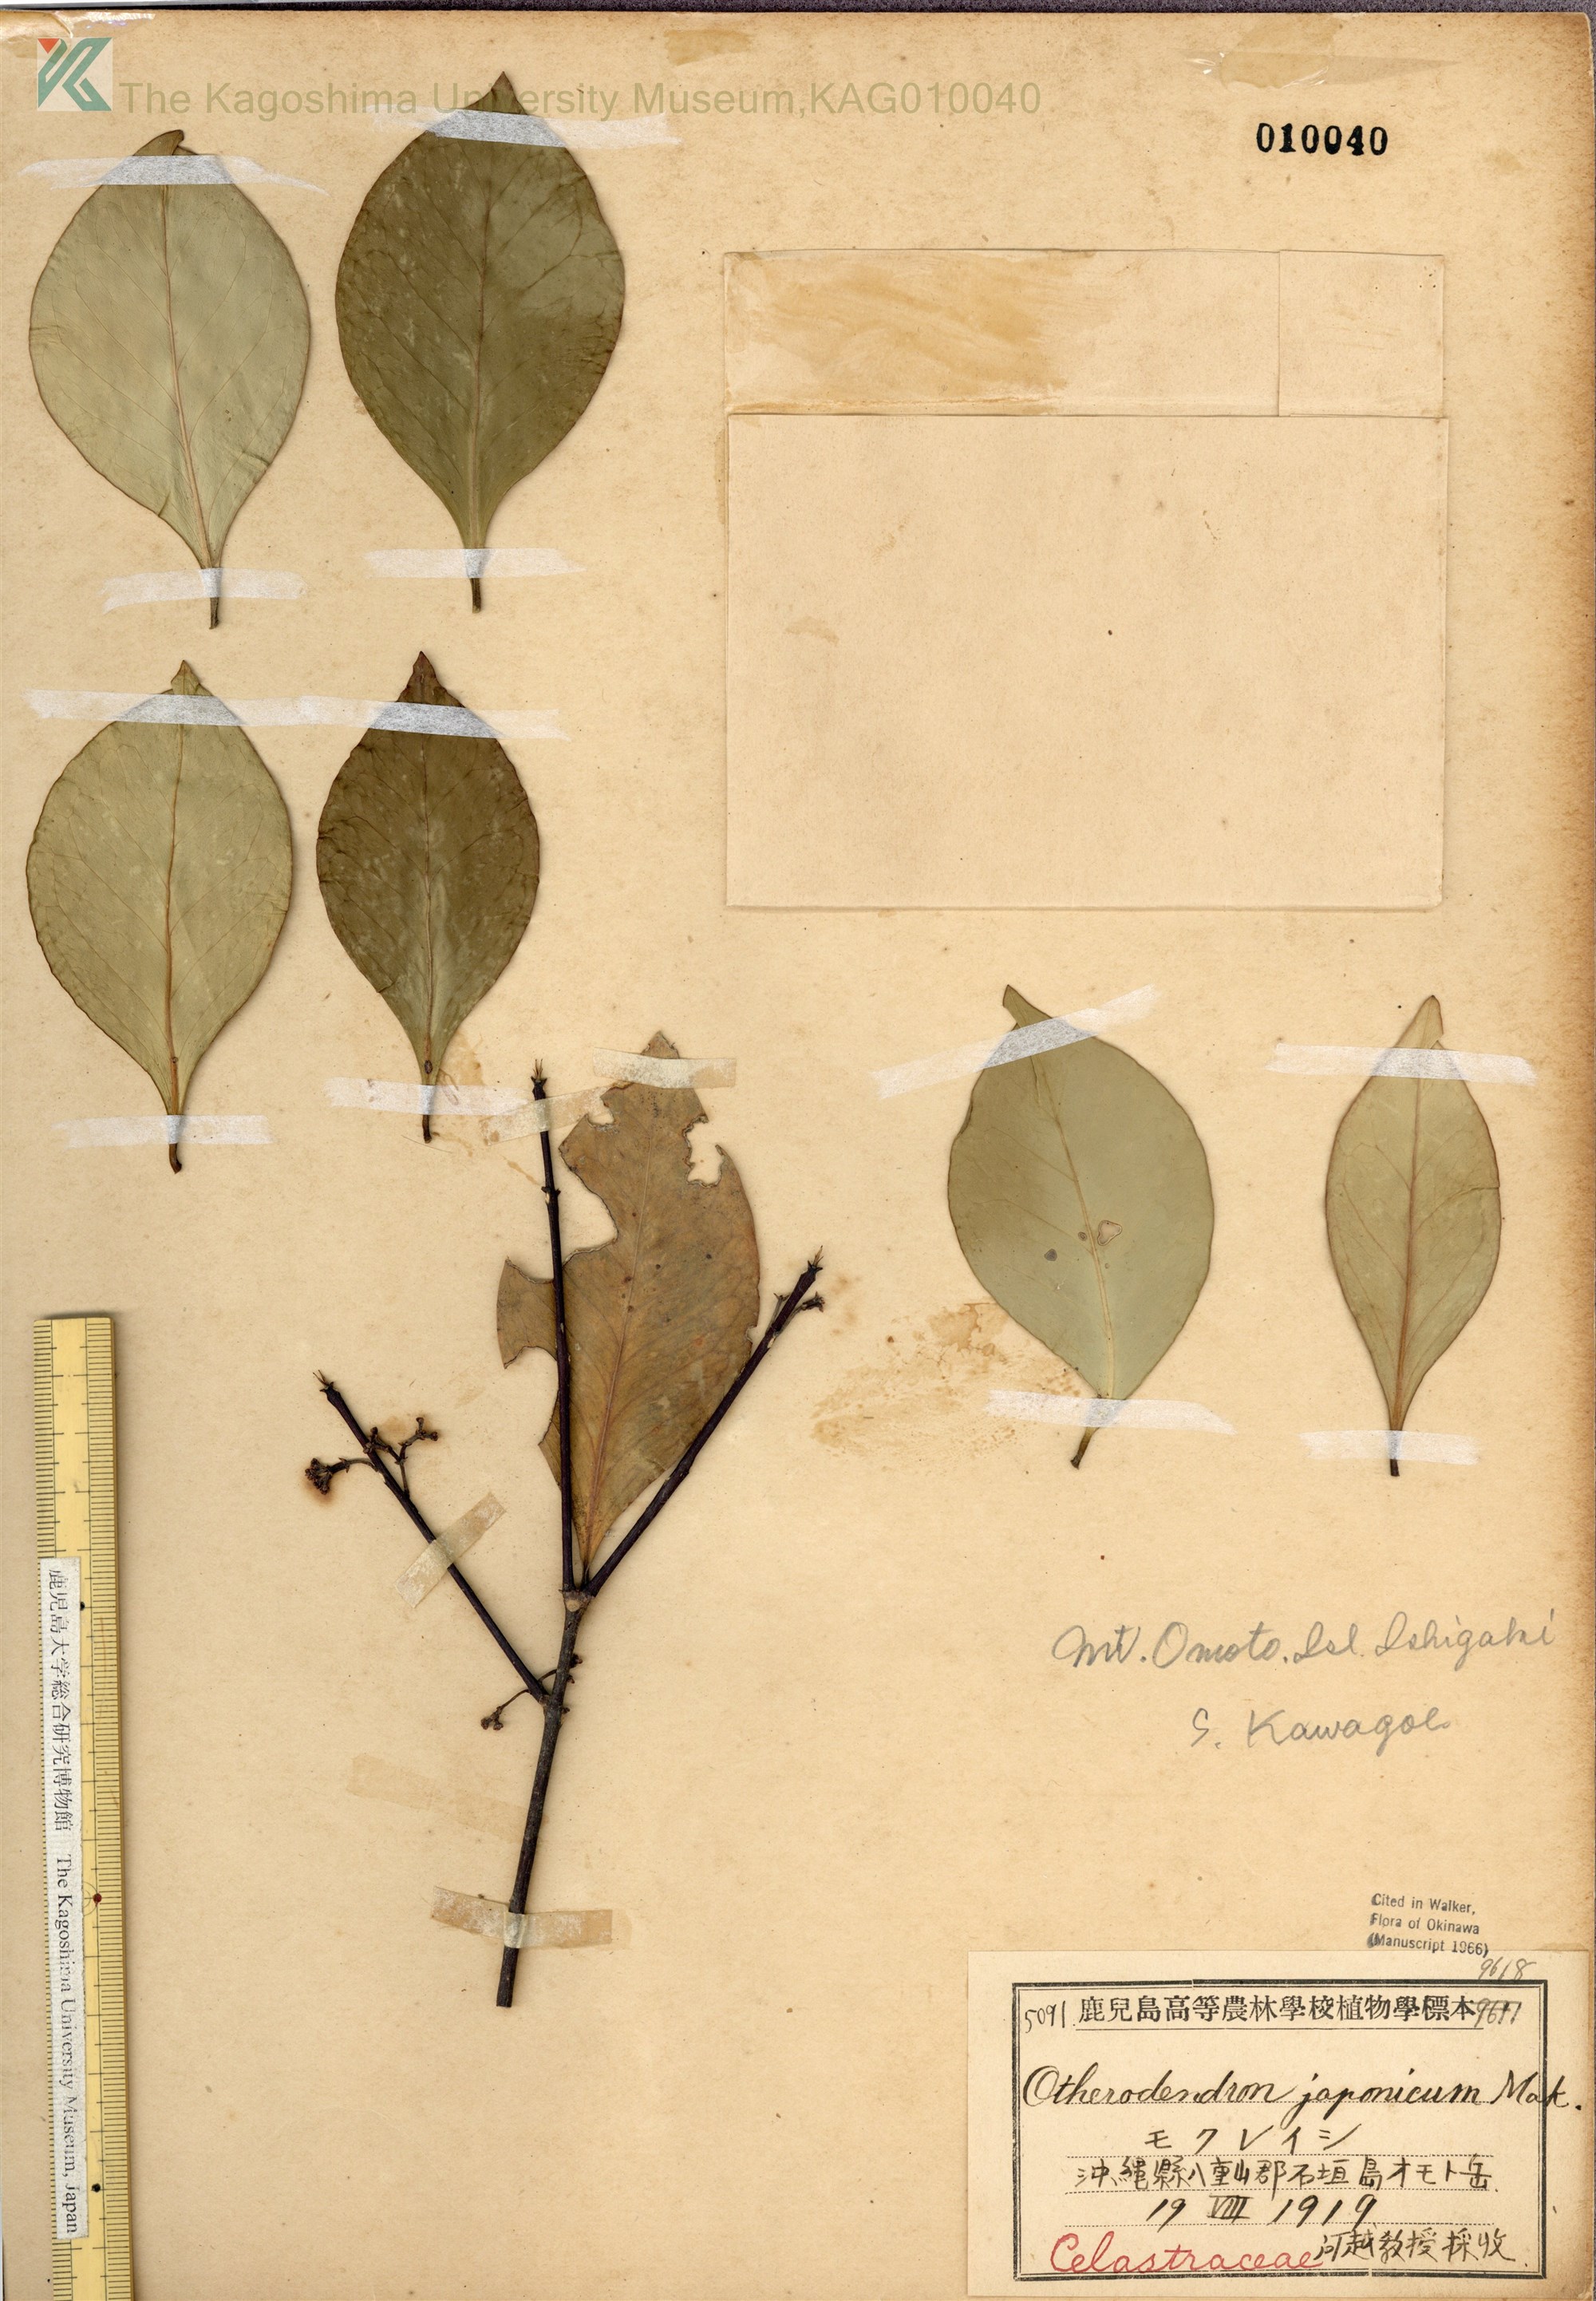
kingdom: Plantae
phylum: Tracheophyta
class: Magnoliopsida
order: Celastrales
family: Celastraceae
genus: Microtropis
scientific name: Microtropis japonica
